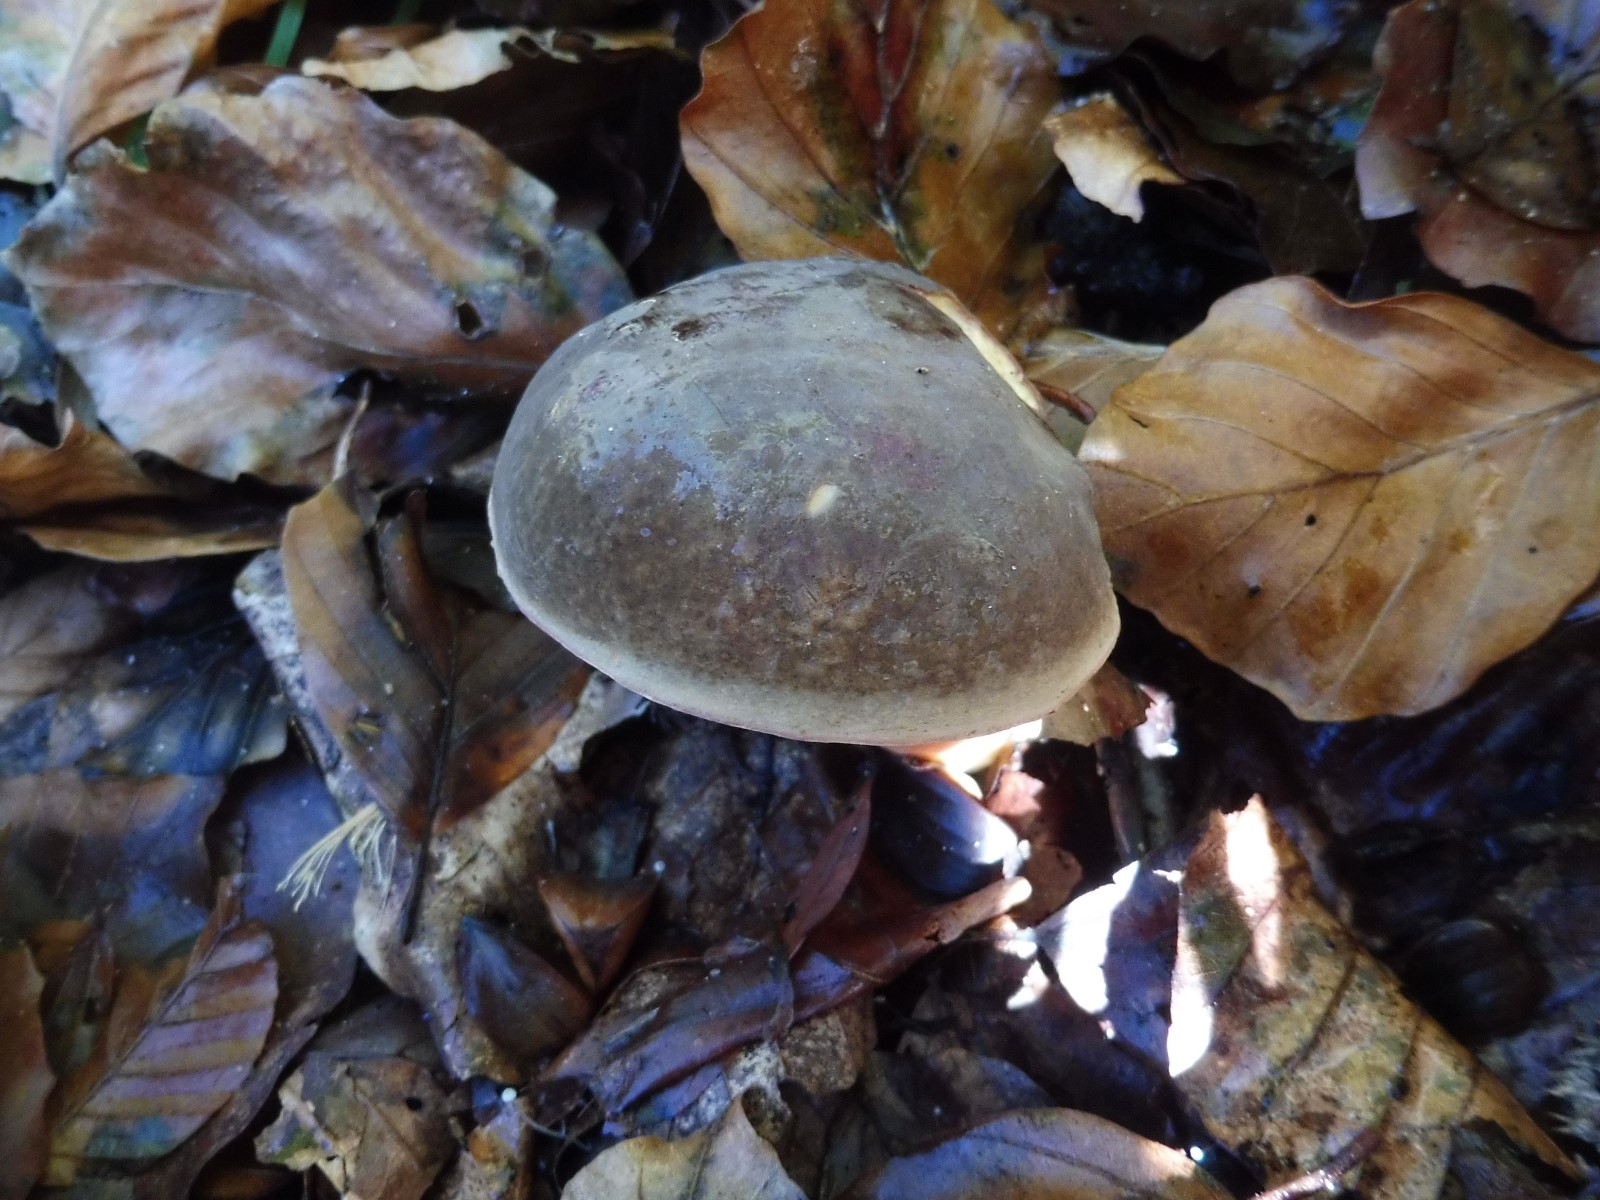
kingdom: Fungi
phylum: Basidiomycota
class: Agaricomycetes
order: Boletales
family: Boletaceae
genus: Xerocomellus
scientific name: Xerocomellus pruinatus
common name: dugget rørhat
